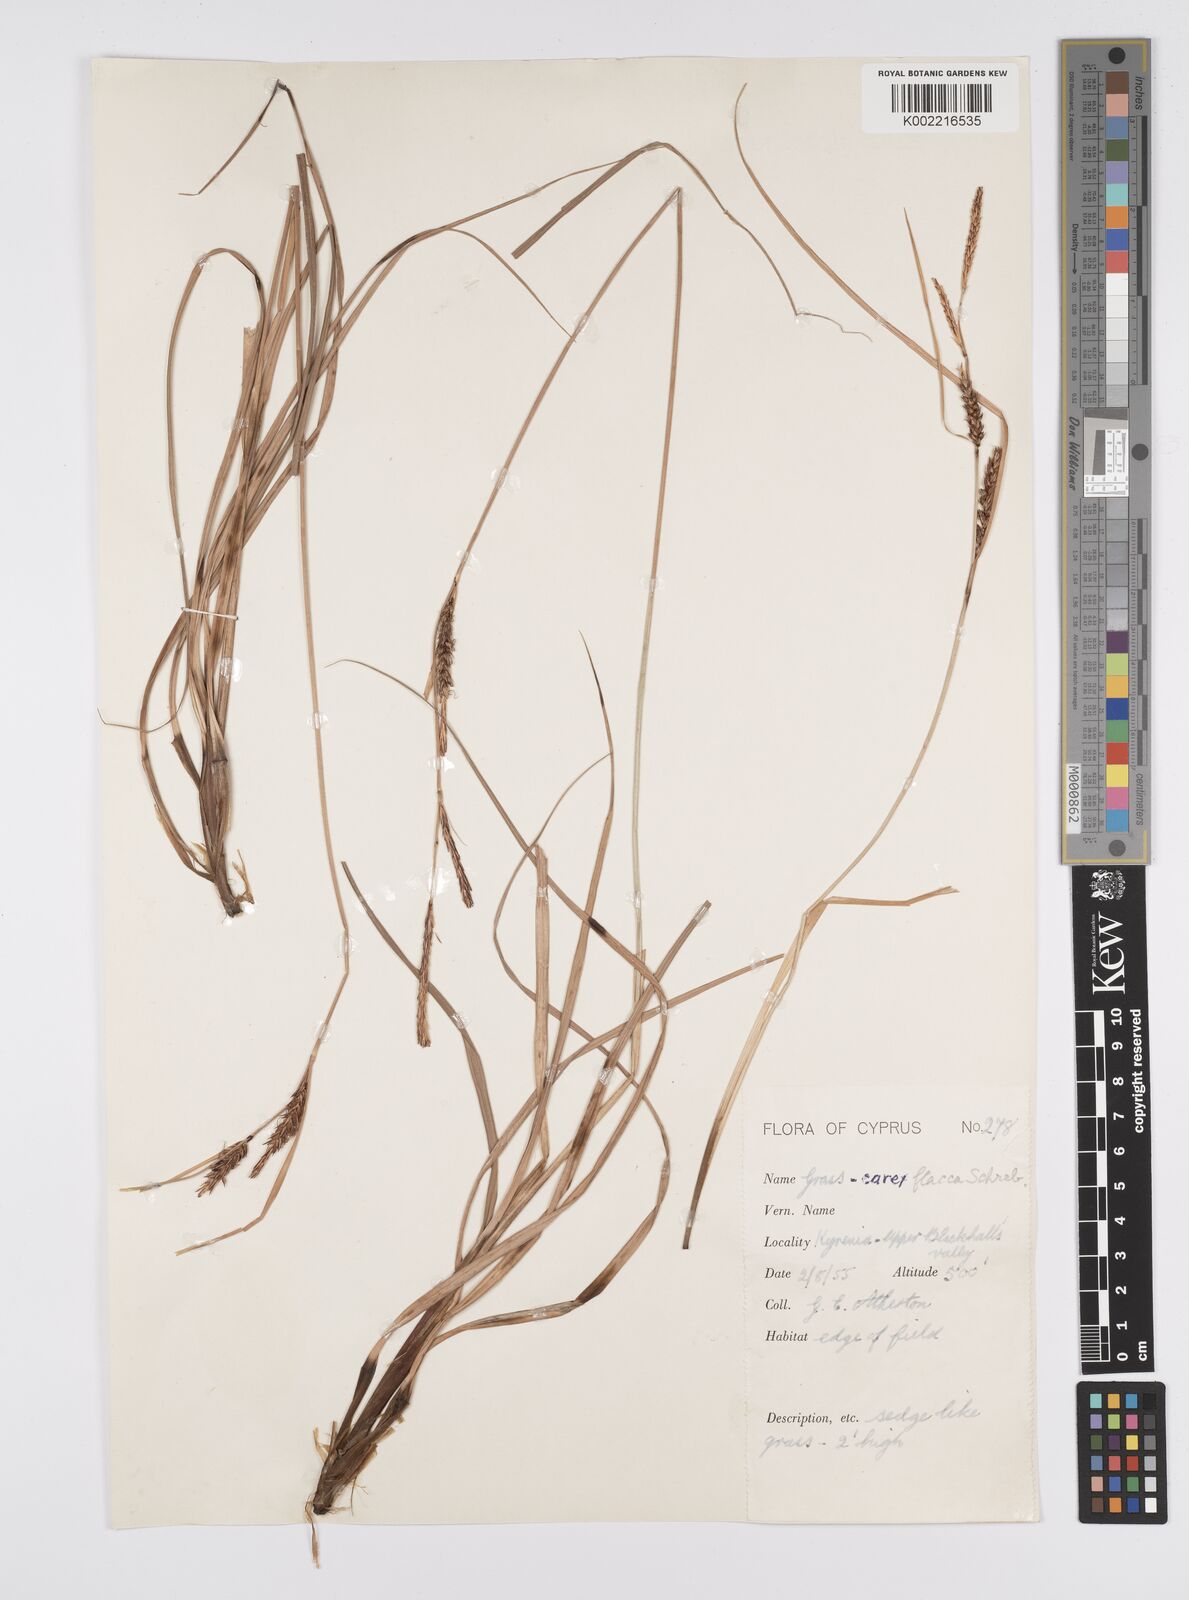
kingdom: Plantae
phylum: Tracheophyta
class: Liliopsida
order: Poales
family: Cyperaceae
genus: Carex
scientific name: Carex flacca
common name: Glaucous sedge
